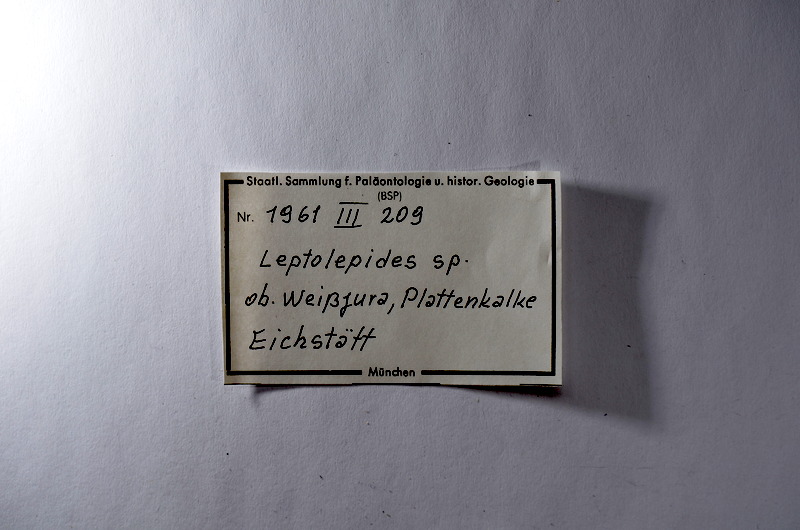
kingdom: Animalia
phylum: Chordata
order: Salmoniformes
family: Orthogonikleithridae
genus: Leptolepides
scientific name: Leptolepides
